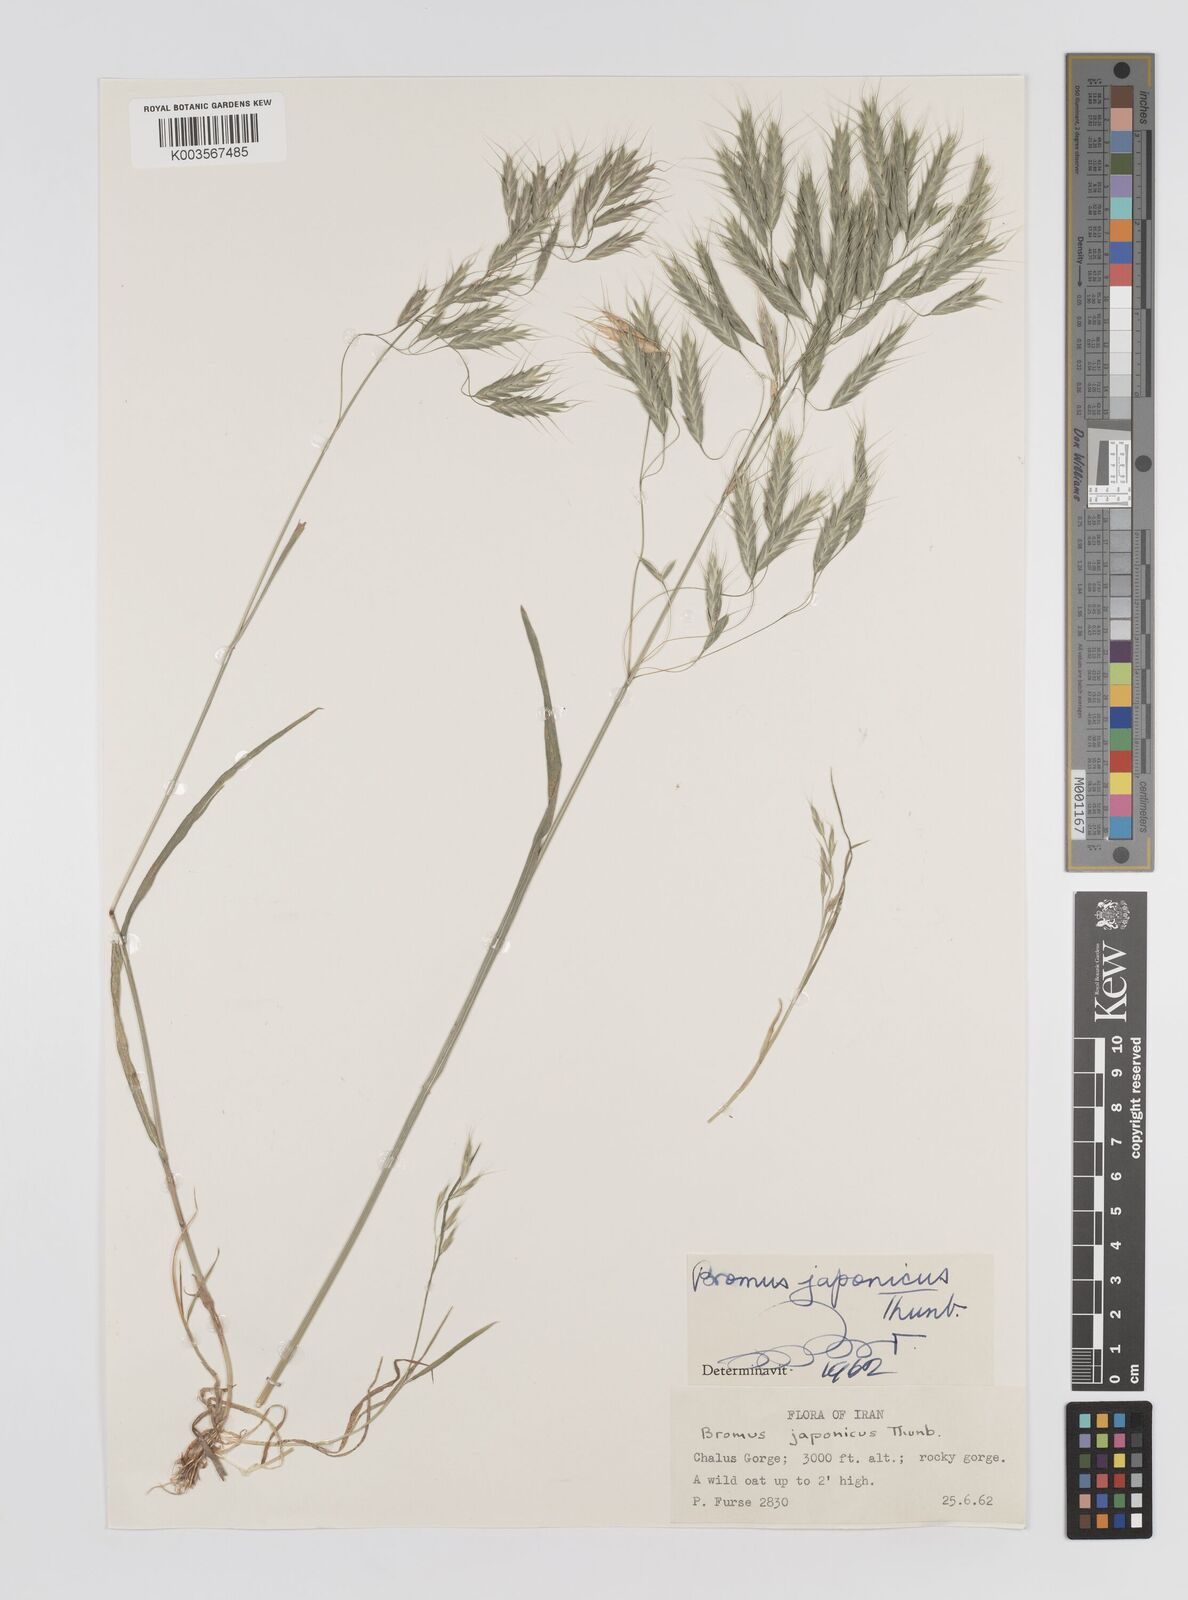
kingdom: Plantae
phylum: Tracheophyta
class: Liliopsida
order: Poales
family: Poaceae
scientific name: Poaceae
